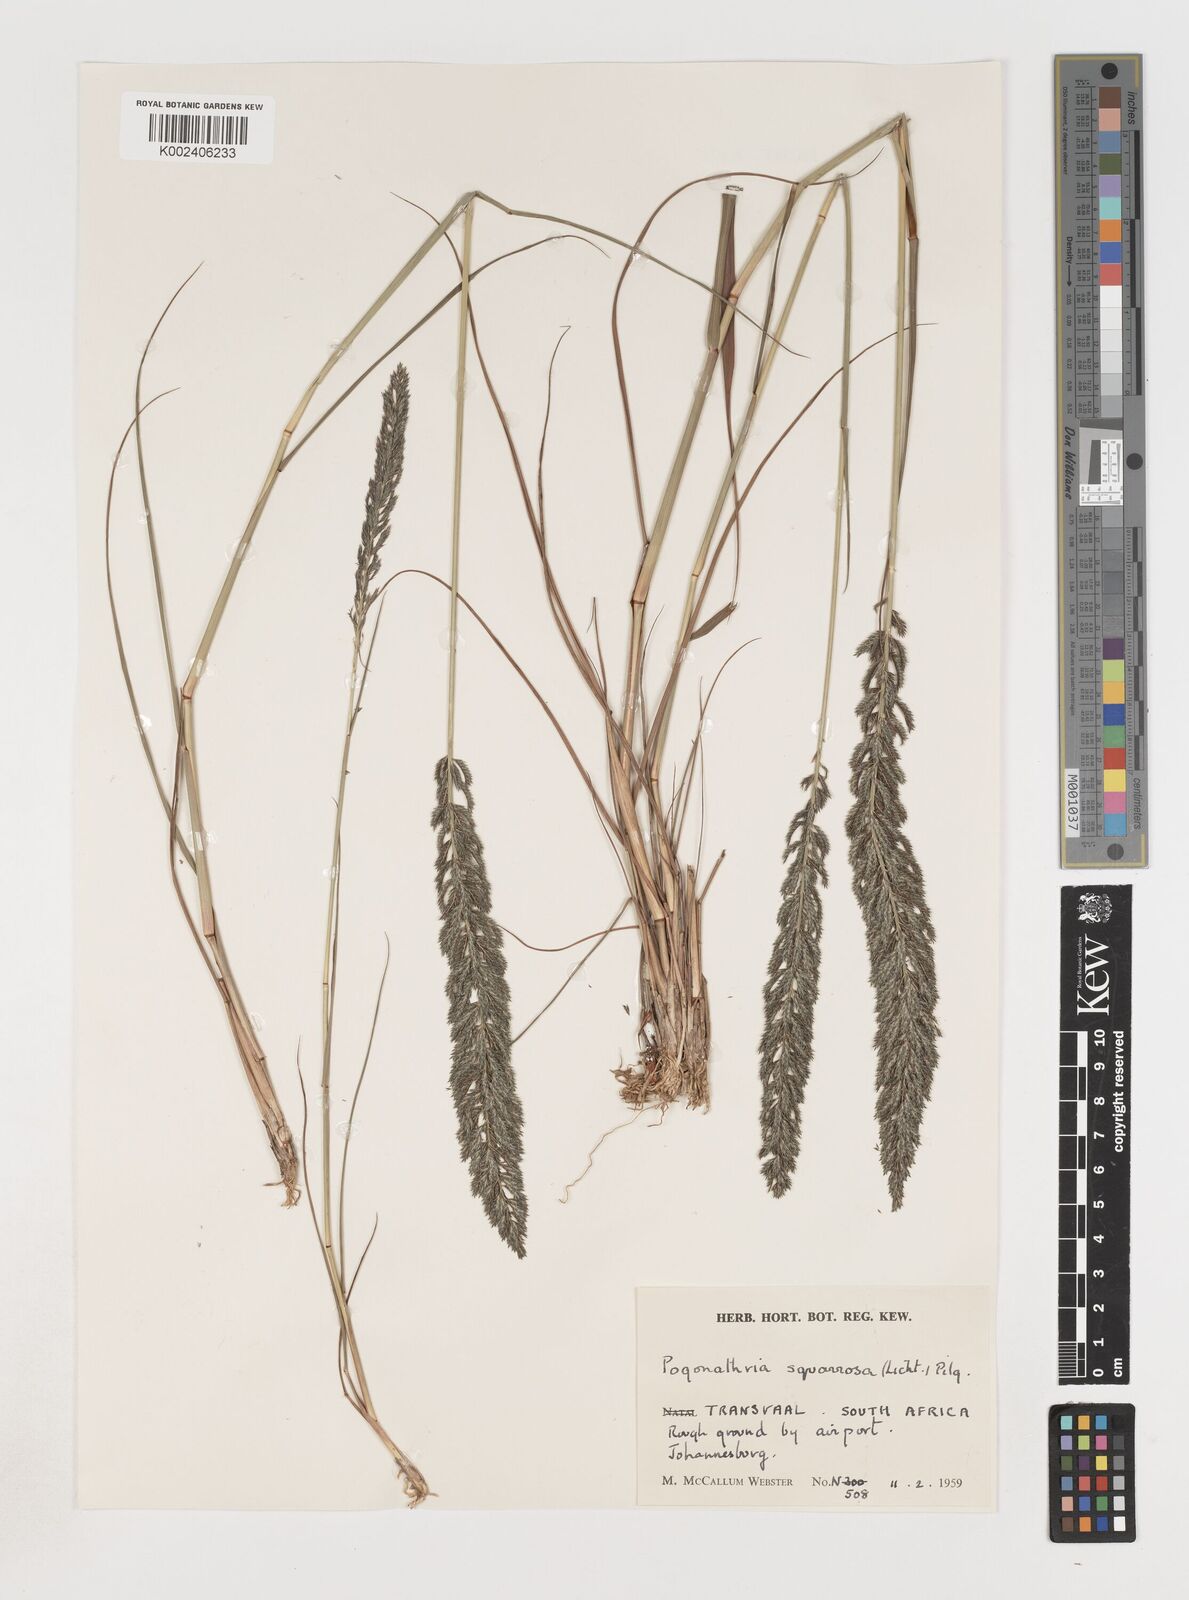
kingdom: Plantae
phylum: Tracheophyta
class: Liliopsida
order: Poales
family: Poaceae
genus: Pogonarthria
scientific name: Pogonarthria squarrosa
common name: Grass
